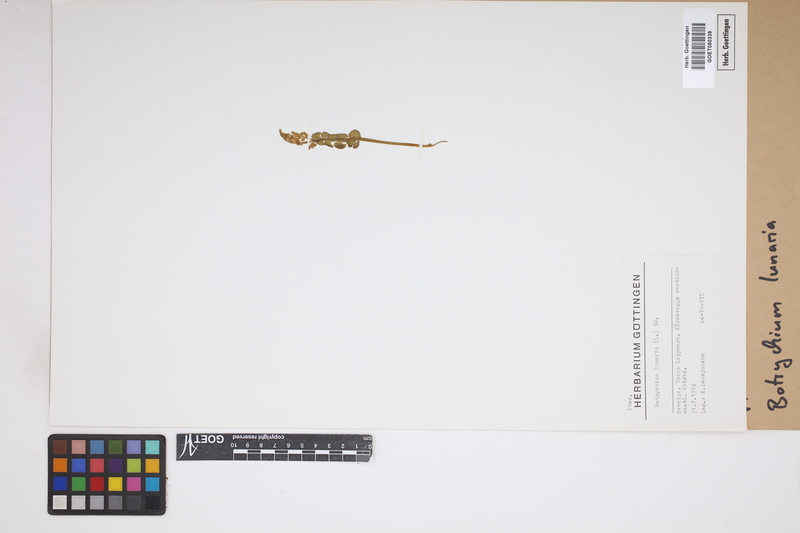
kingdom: Plantae
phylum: Tracheophyta
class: Polypodiopsida
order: Ophioglossales
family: Ophioglossaceae
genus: Botrychium
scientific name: Botrychium lunaria
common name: Moonwort
